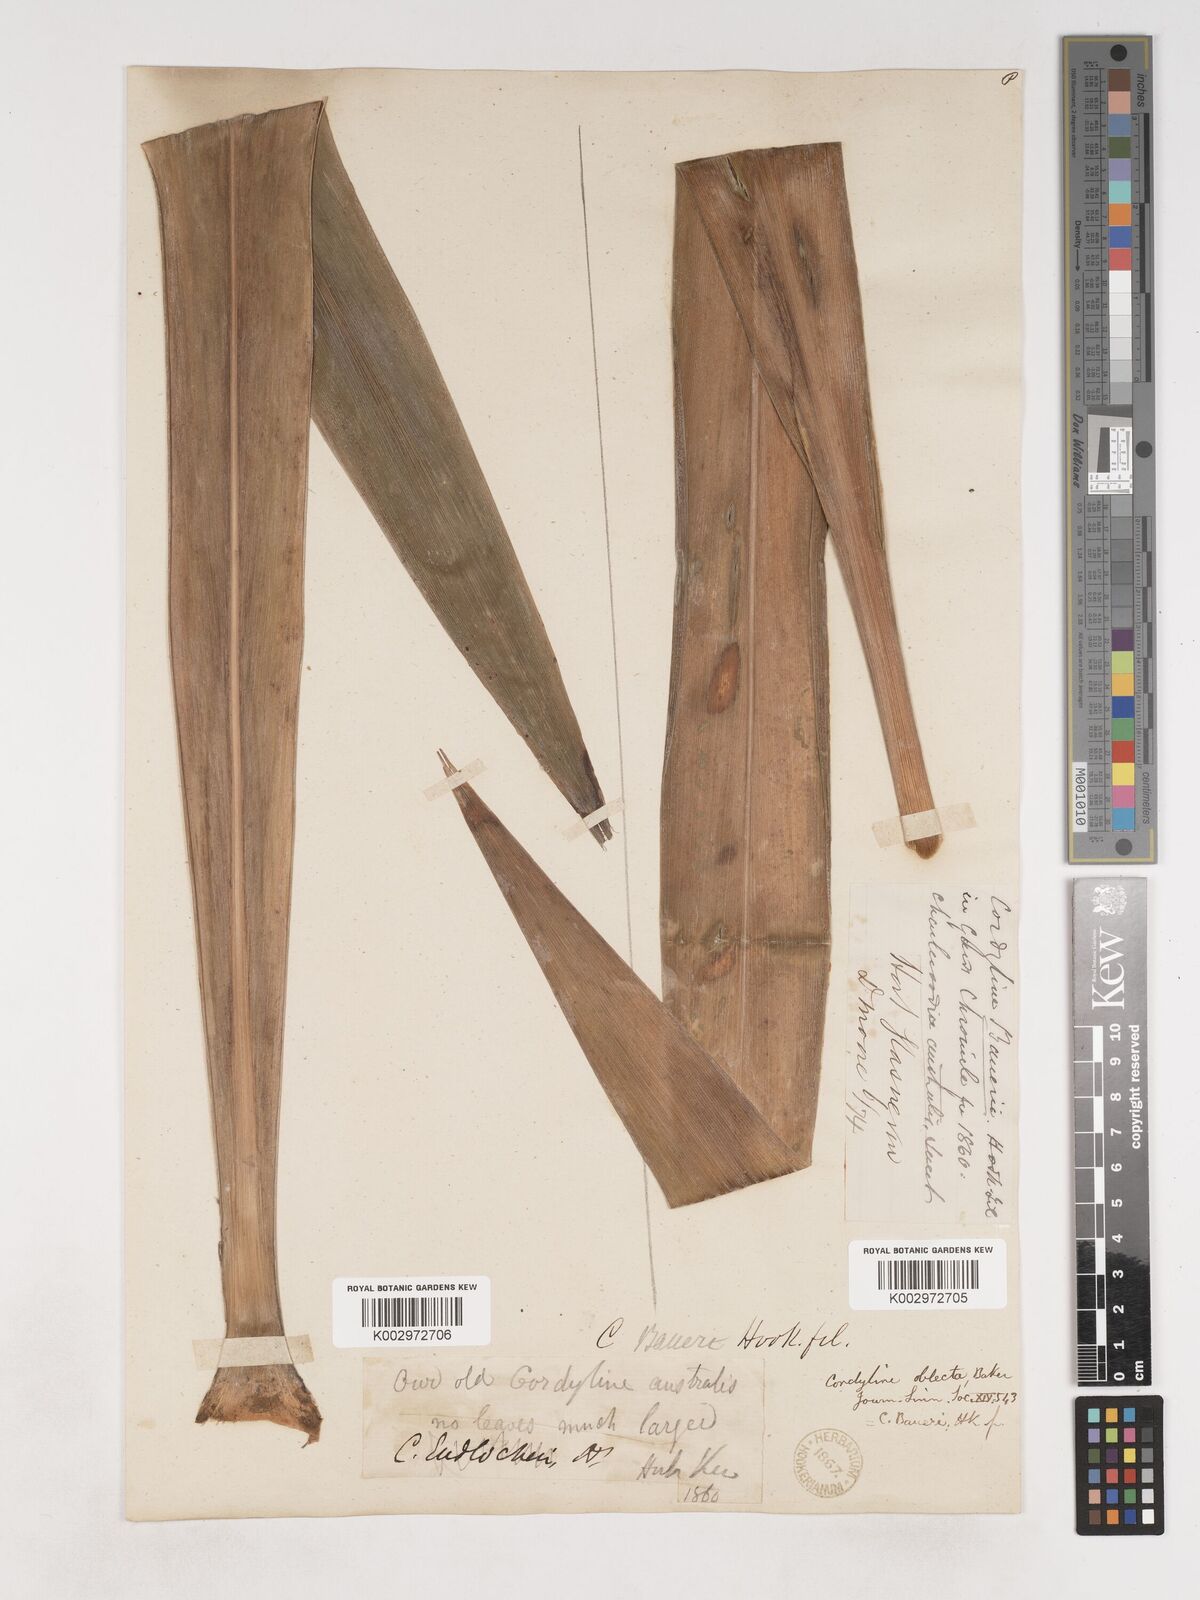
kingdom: Plantae
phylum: Tracheophyta
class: Liliopsida
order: Asparagales
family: Asparagaceae
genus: Cordyline
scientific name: Cordyline obtecta
